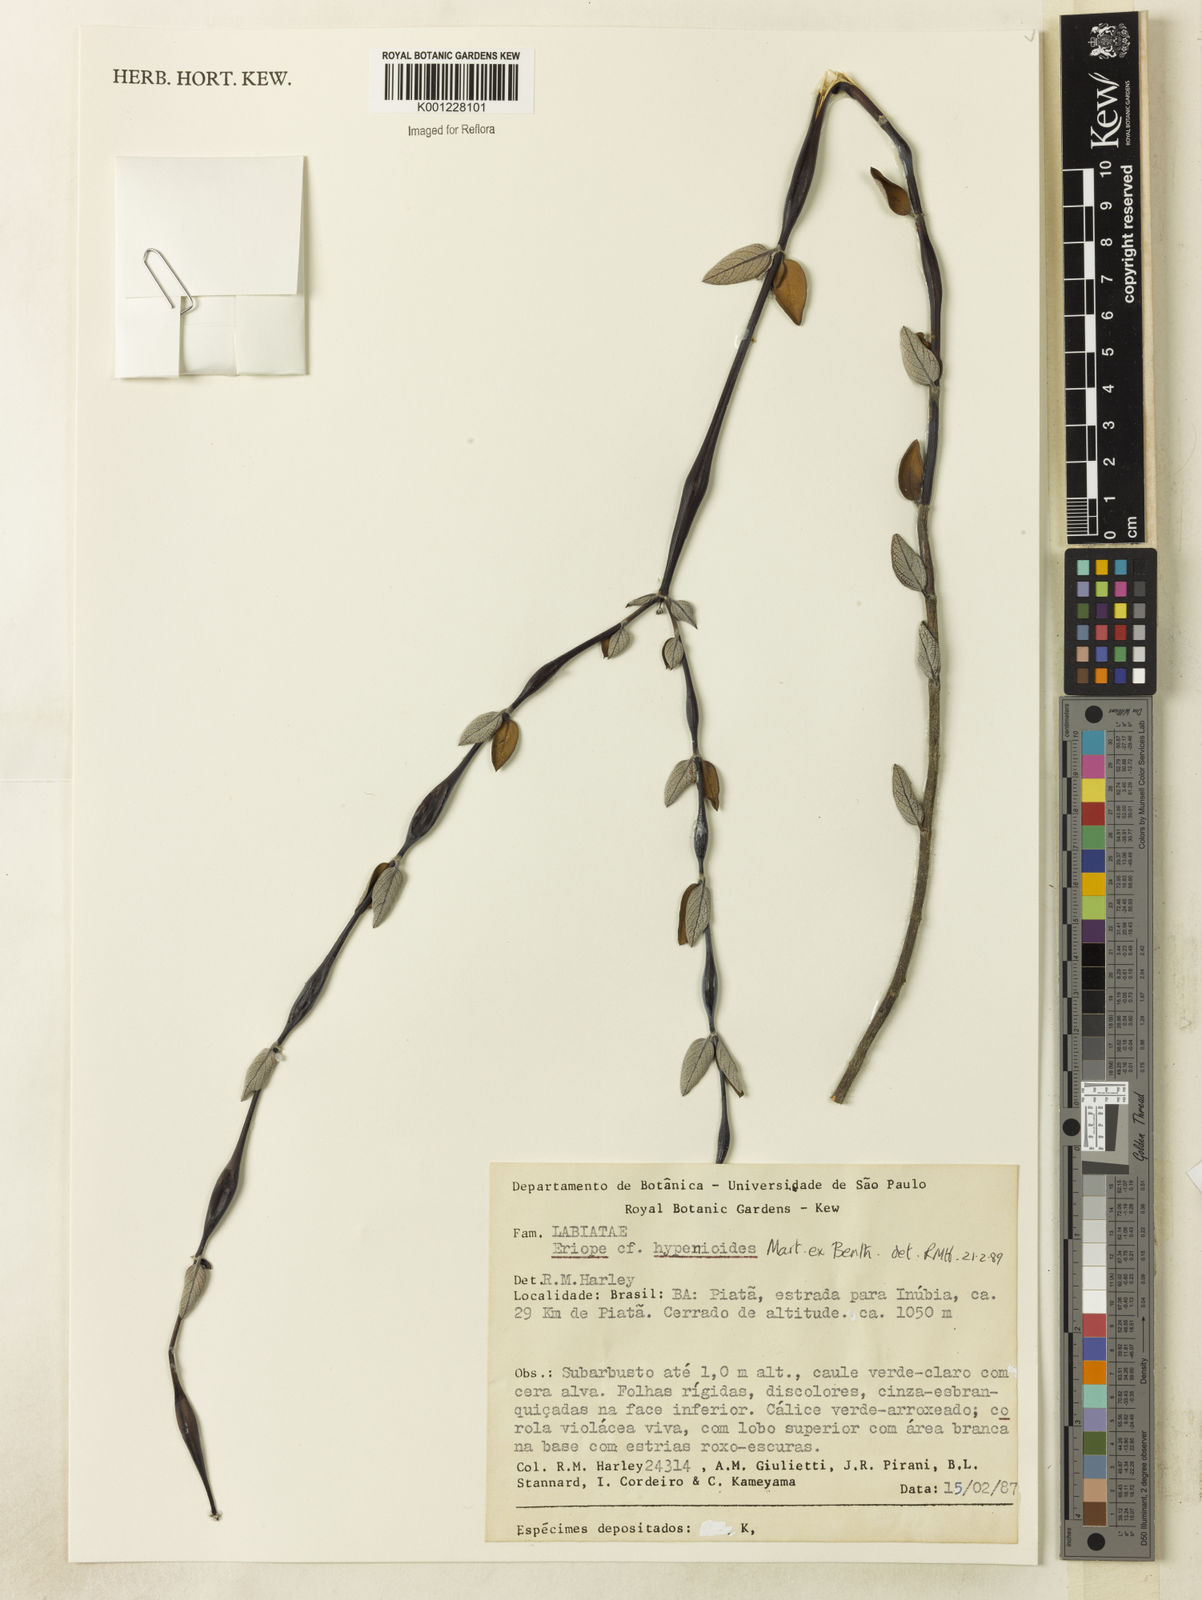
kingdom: Plantae
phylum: Tracheophyta
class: Magnoliopsida
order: Lamiales
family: Lamiaceae
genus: Eriope
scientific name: Eriope hypenioides
